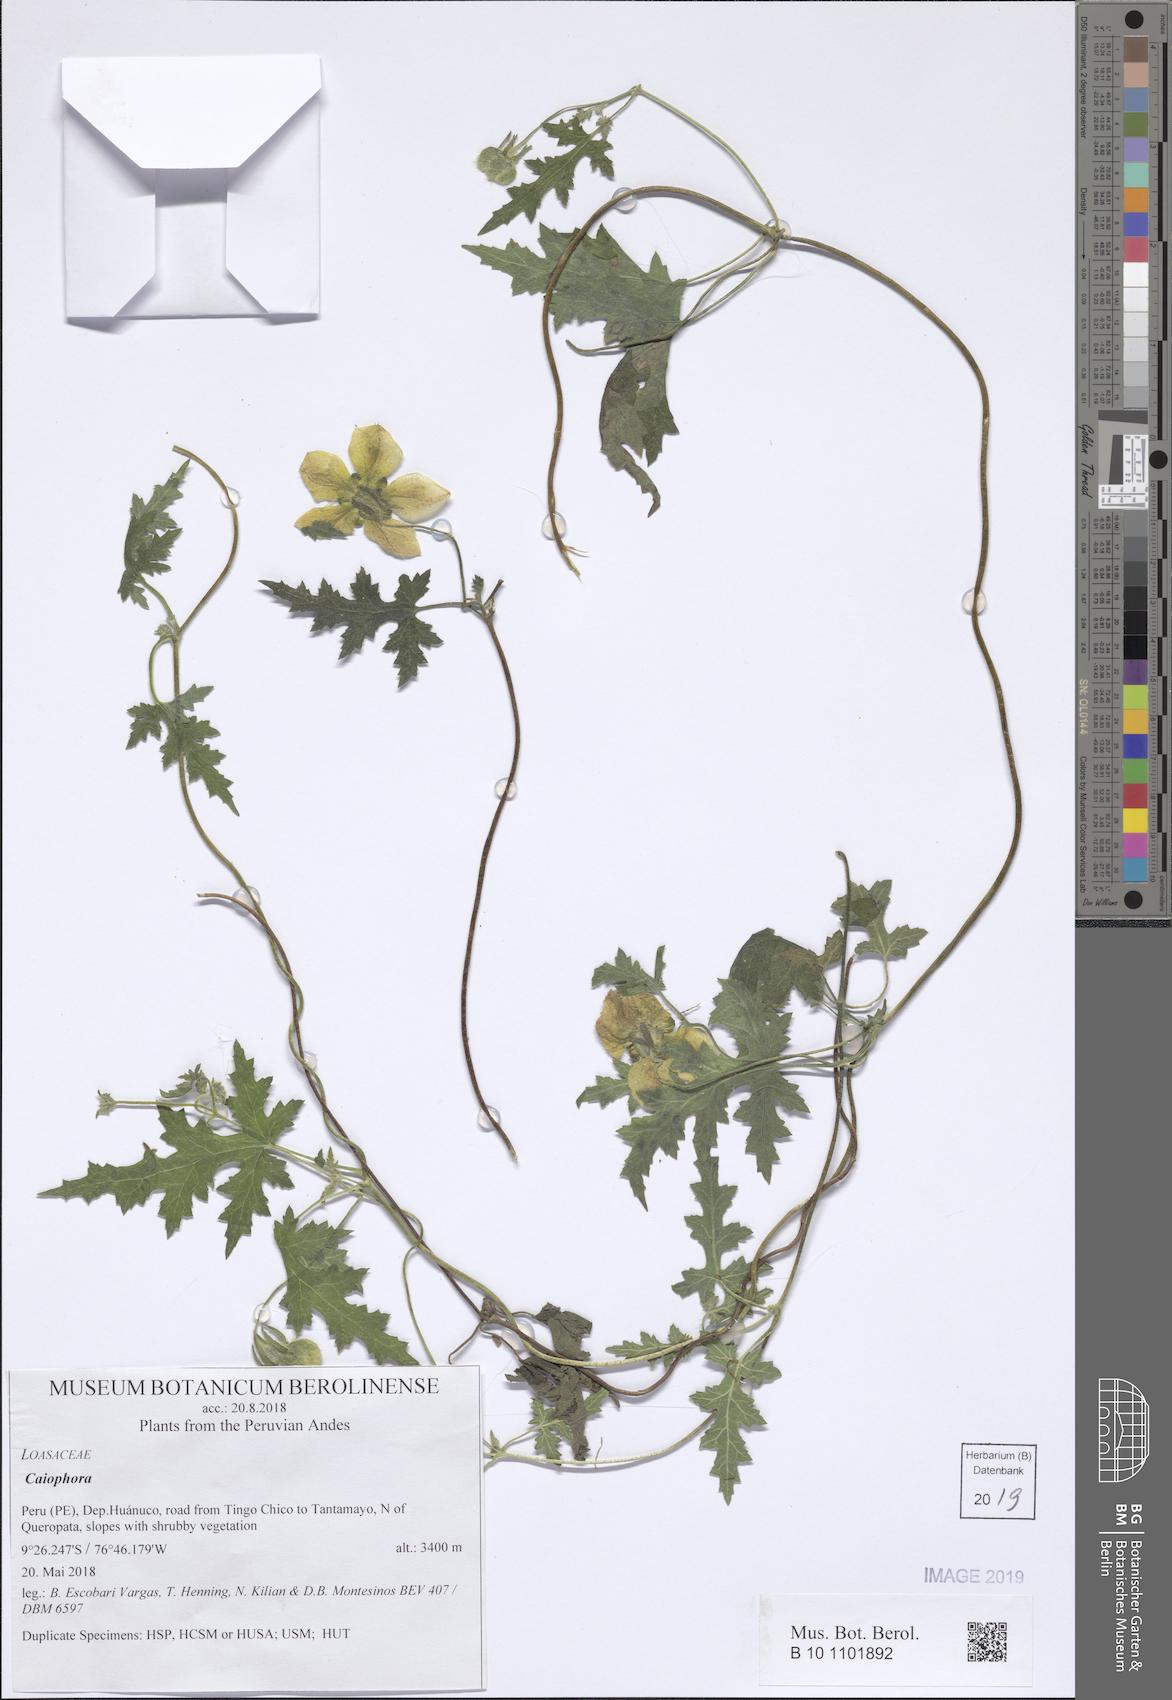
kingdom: Plantae
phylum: Tracheophyta
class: Magnoliopsida
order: Cornales
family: Loasaceae
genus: Caiophora
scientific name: Caiophora cirsiifolia
